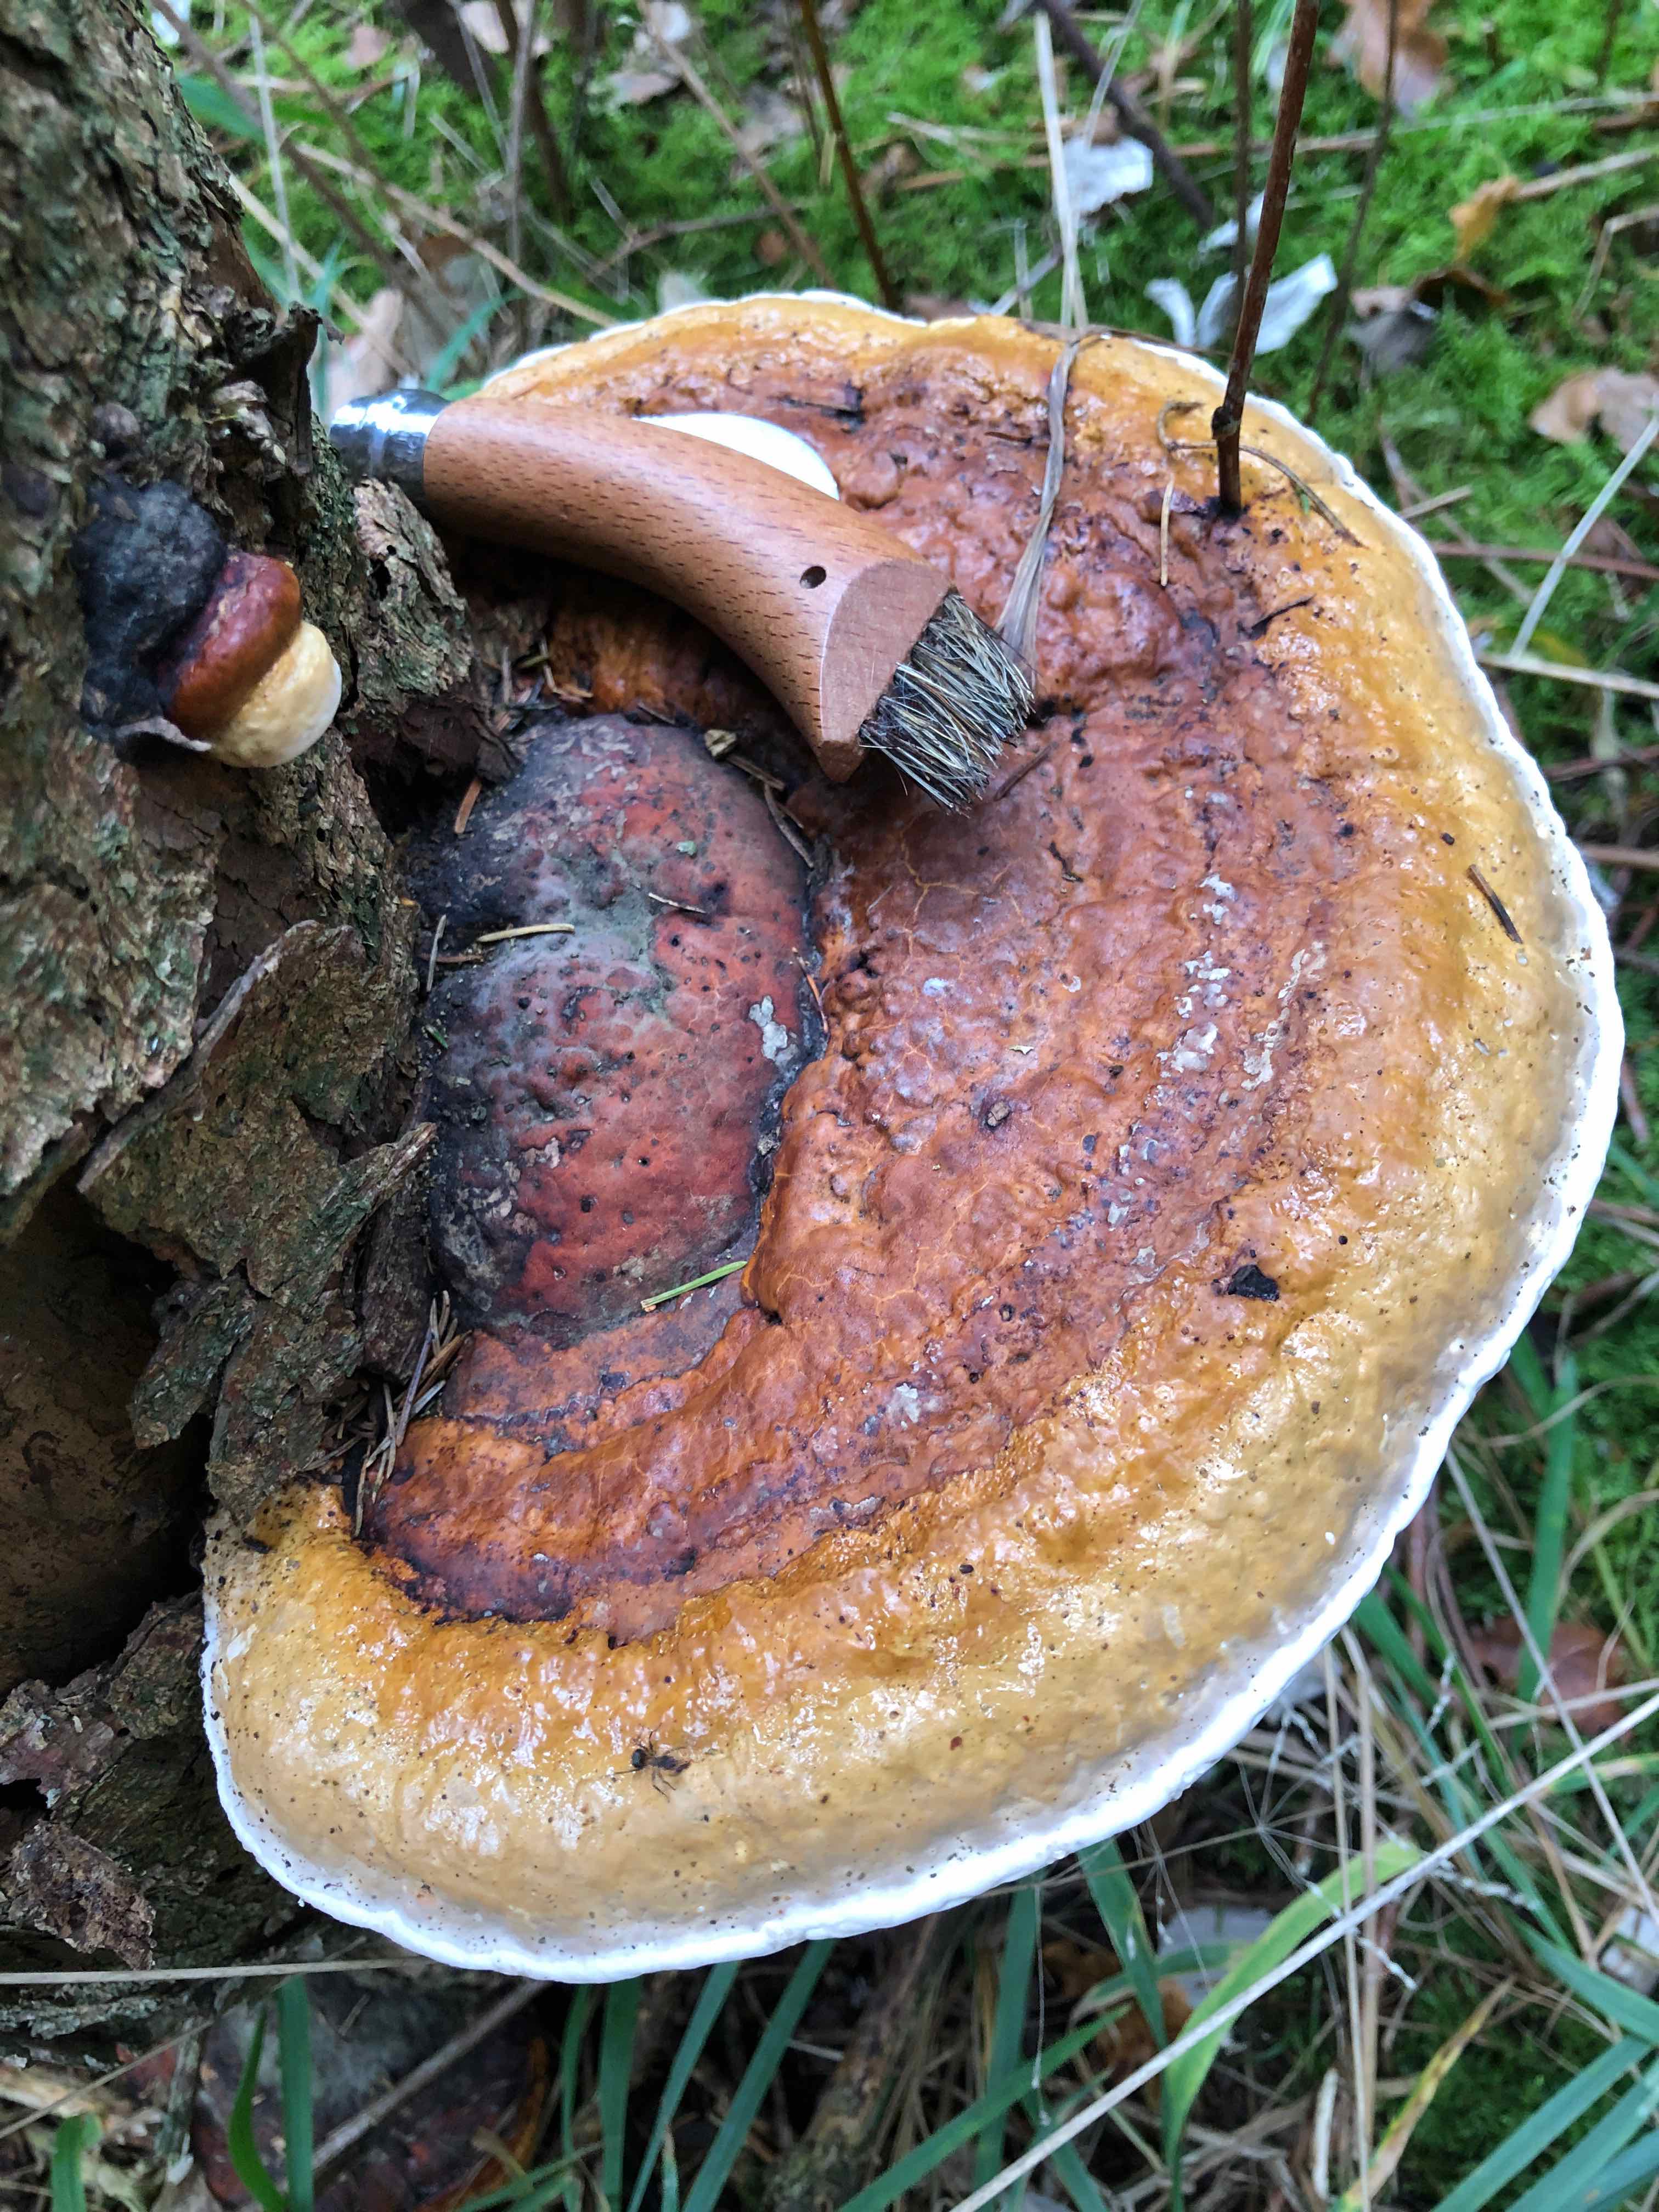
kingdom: Fungi
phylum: Basidiomycota
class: Agaricomycetes
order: Polyporales
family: Fomitopsidaceae
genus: Fomitopsis
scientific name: Fomitopsis pinicola
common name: randbæltet hovporesvamp
